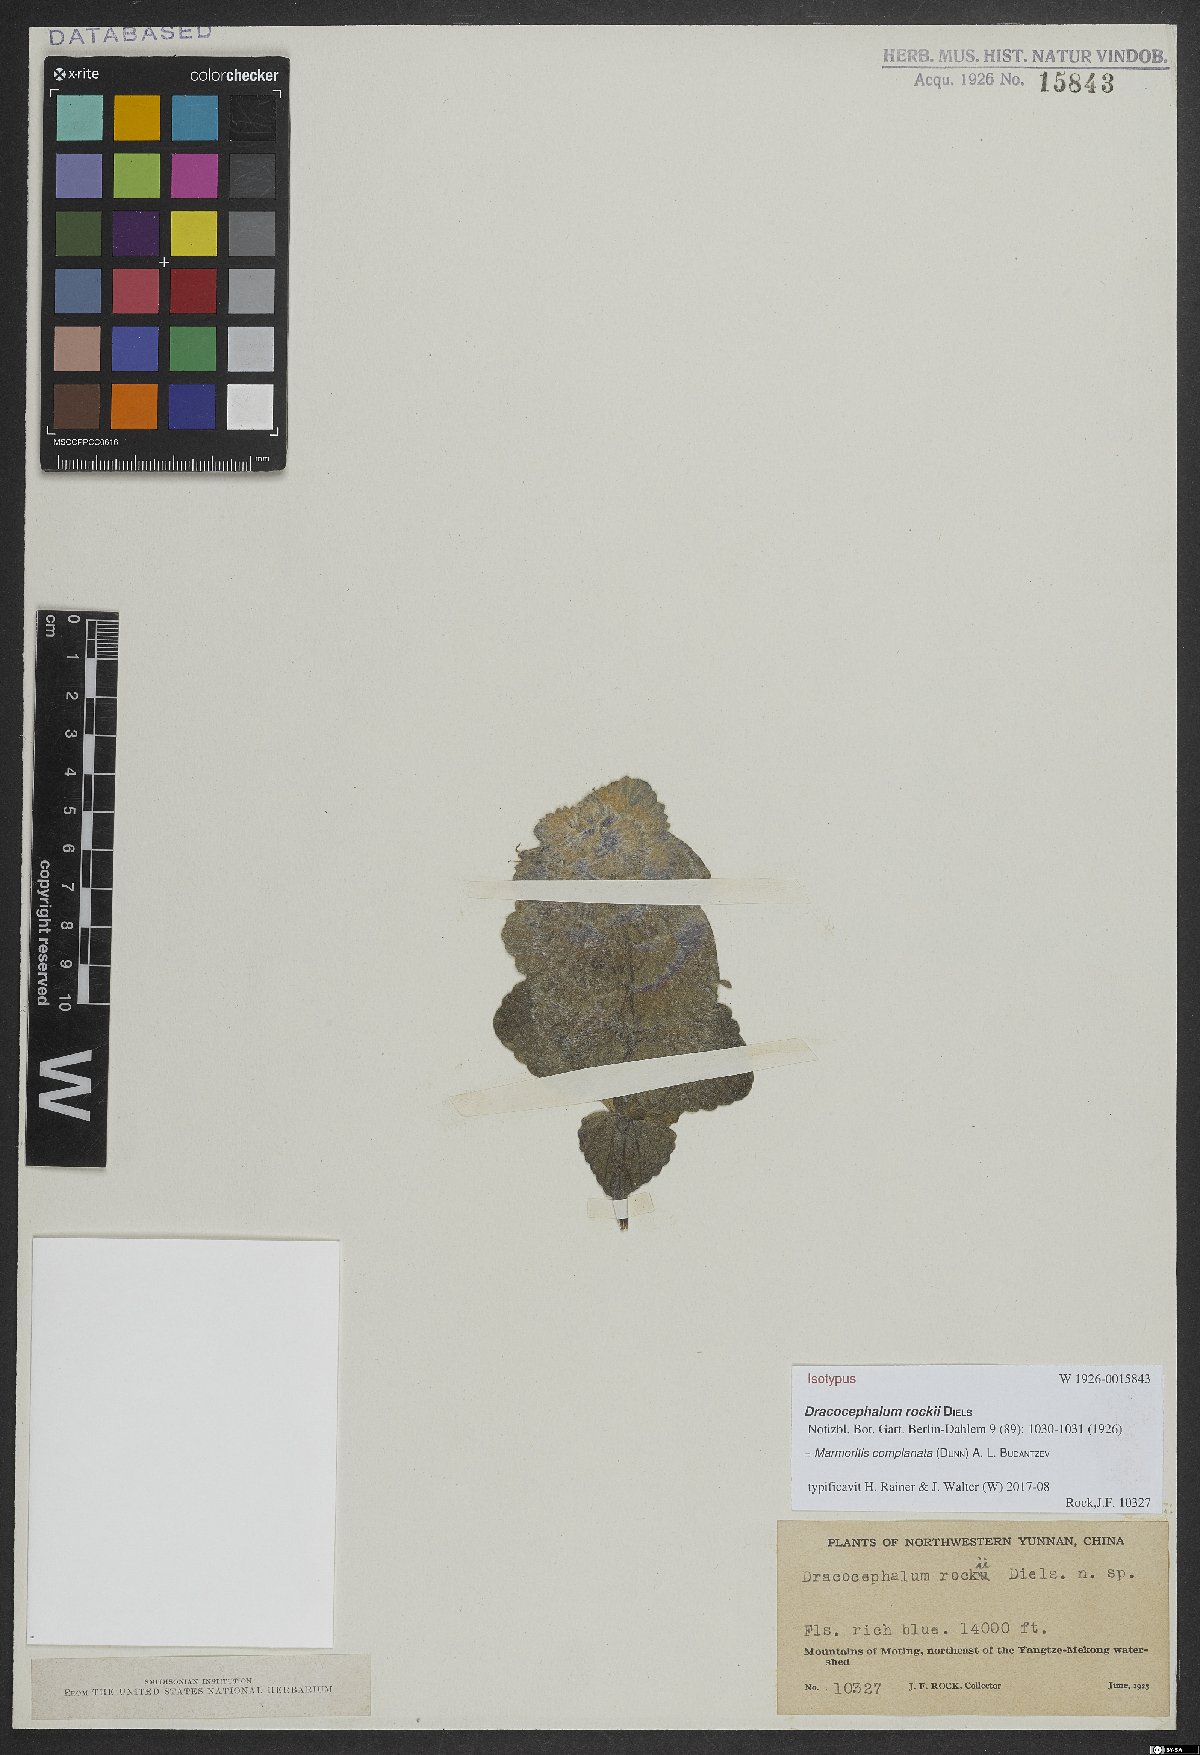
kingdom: Plantae
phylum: Tracheophyta
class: Magnoliopsida
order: Lamiales
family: Lamiaceae
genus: Nepeta
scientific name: Nepeta complanata
